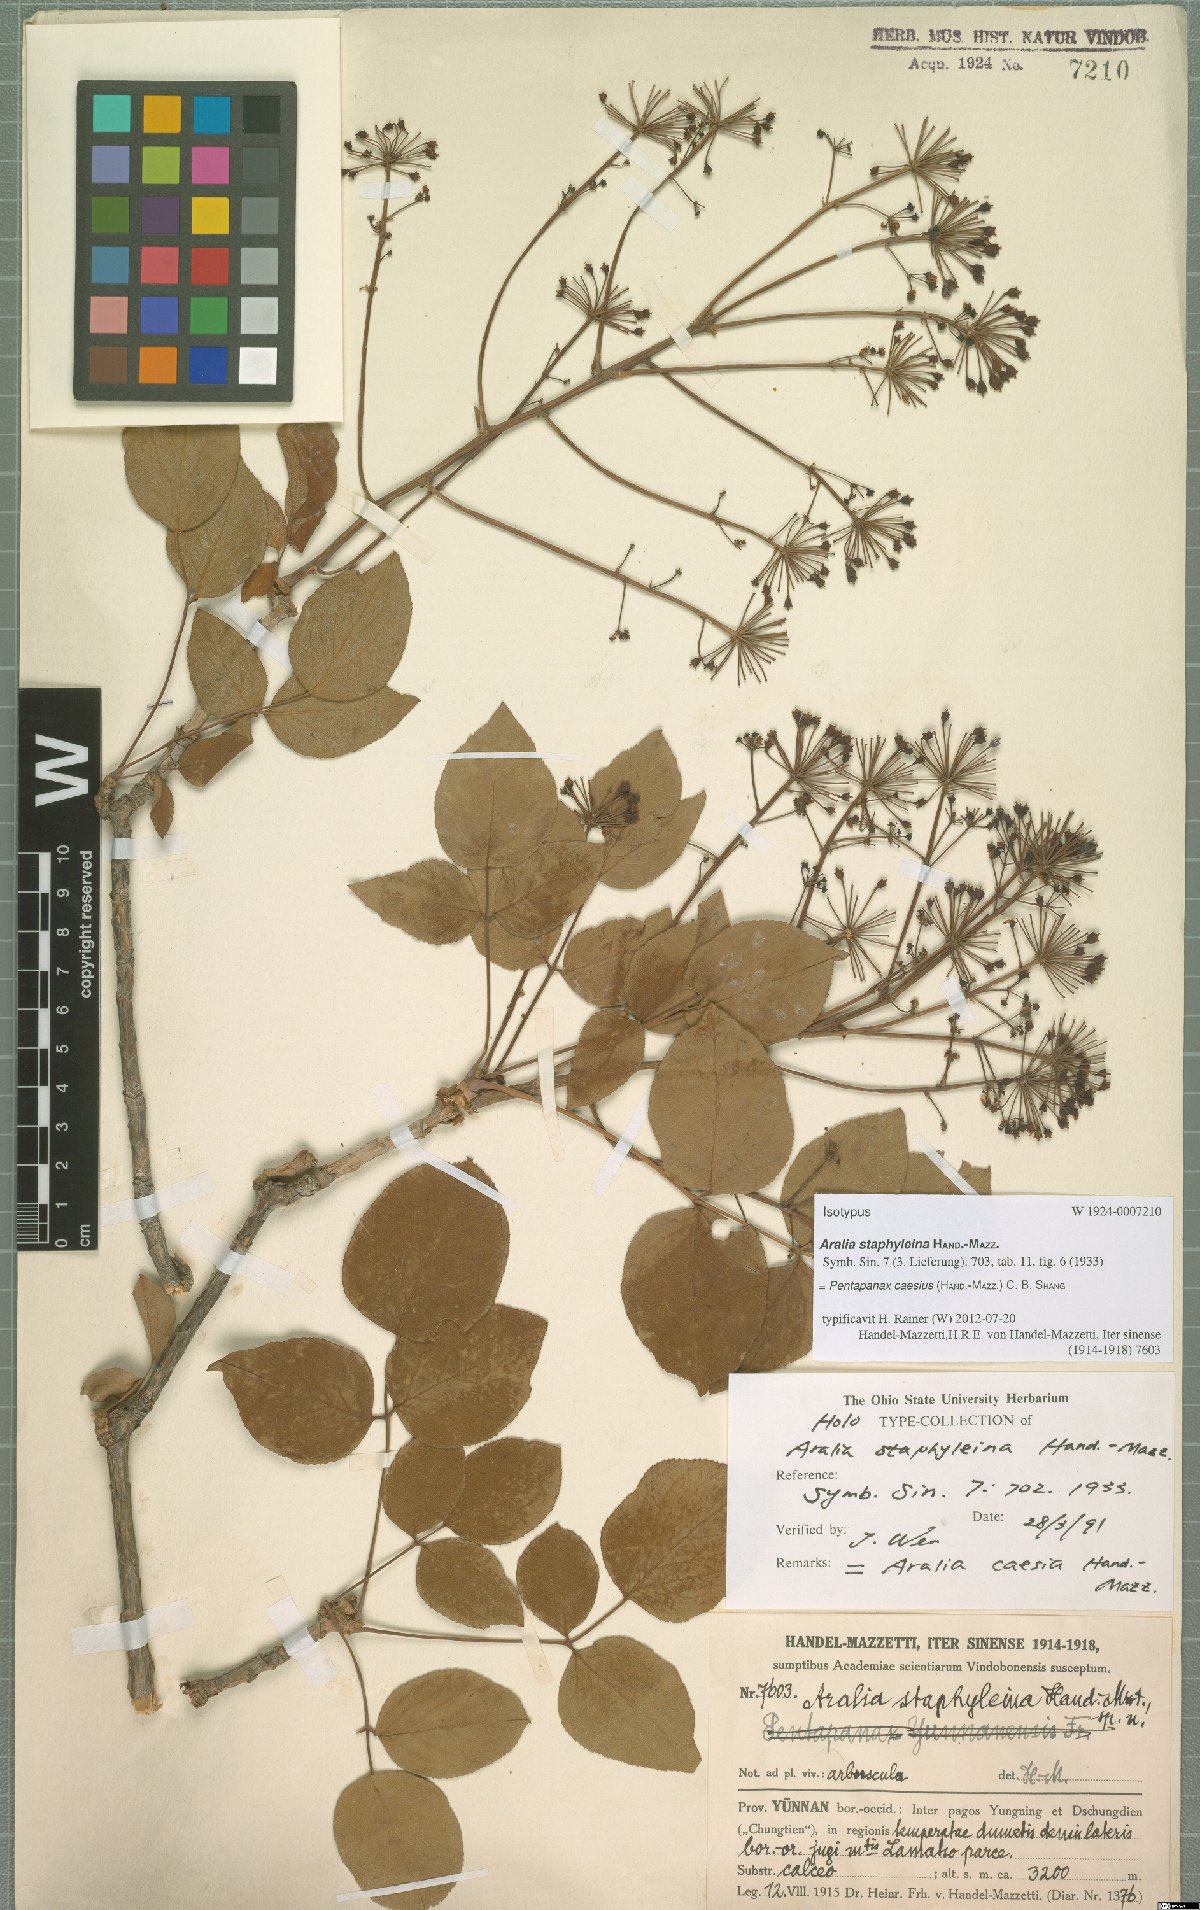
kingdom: Plantae
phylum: Tracheophyta
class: Magnoliopsida
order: Apiales
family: Araliaceae
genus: Aralia
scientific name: Aralia caesia
